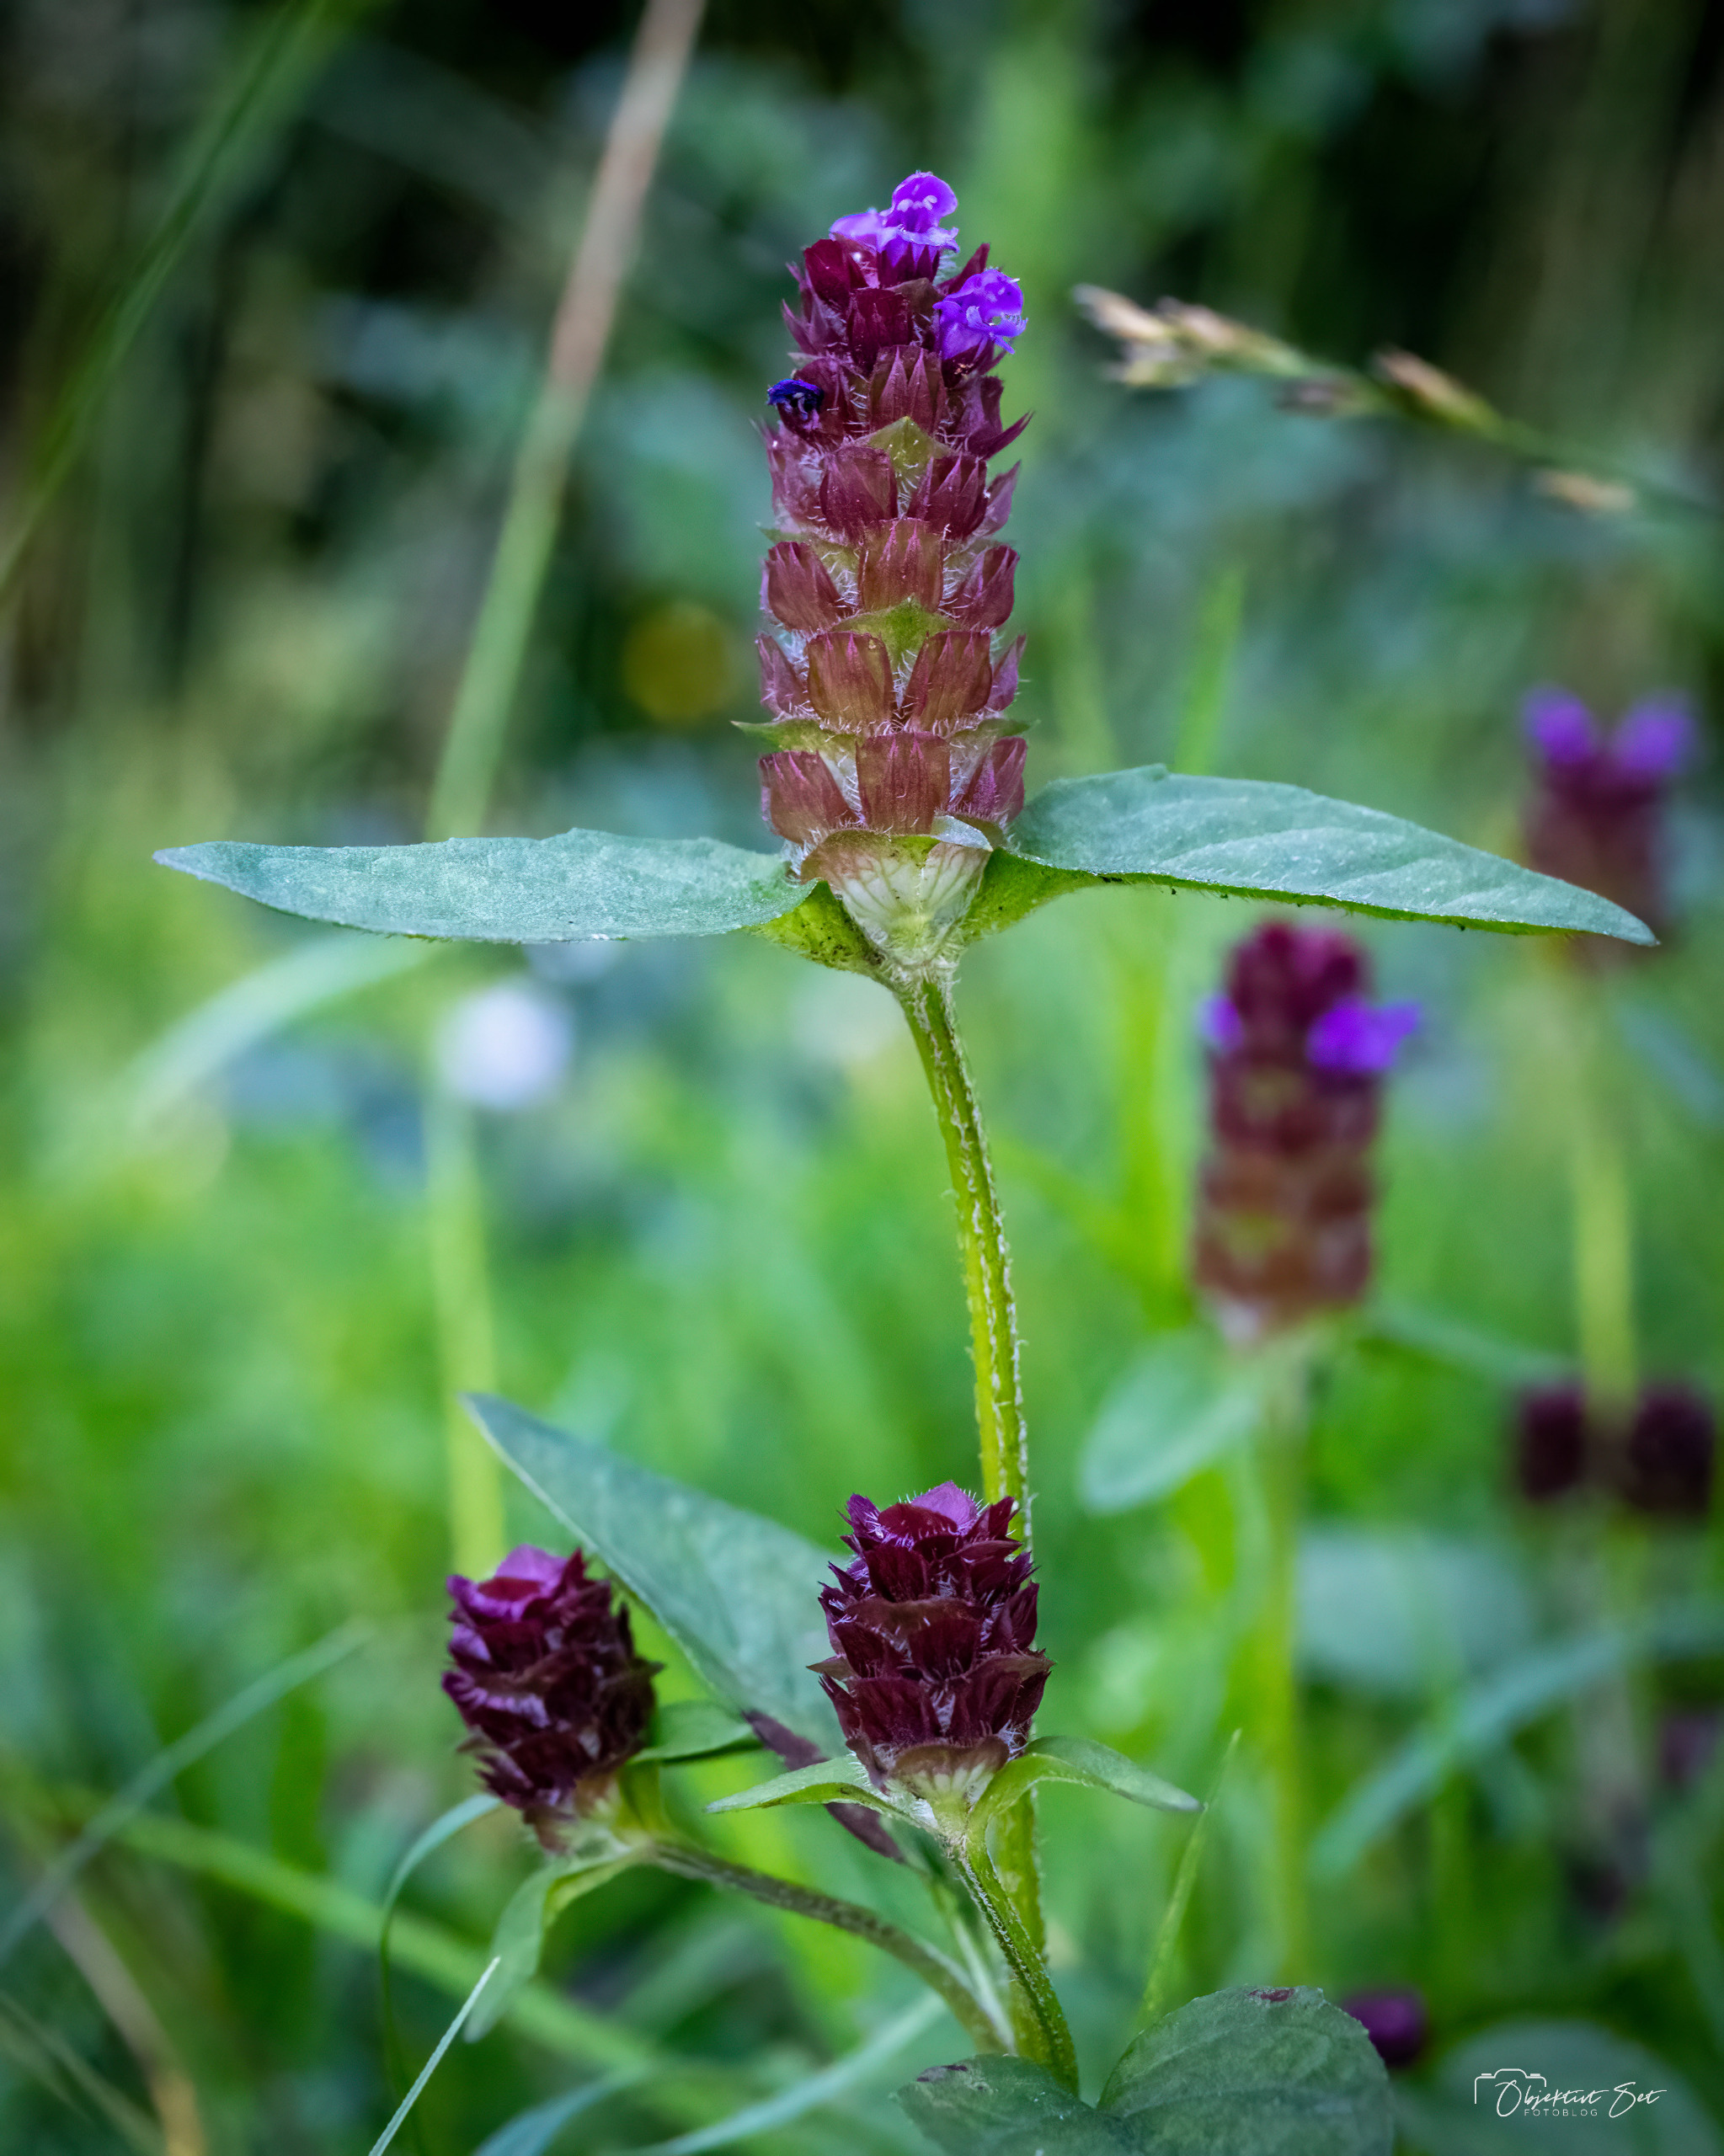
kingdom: Plantae
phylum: Tracheophyta
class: Magnoliopsida
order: Lamiales
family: Lamiaceae
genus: Prunella
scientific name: Prunella vulgaris
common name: Almindelig brunelle
